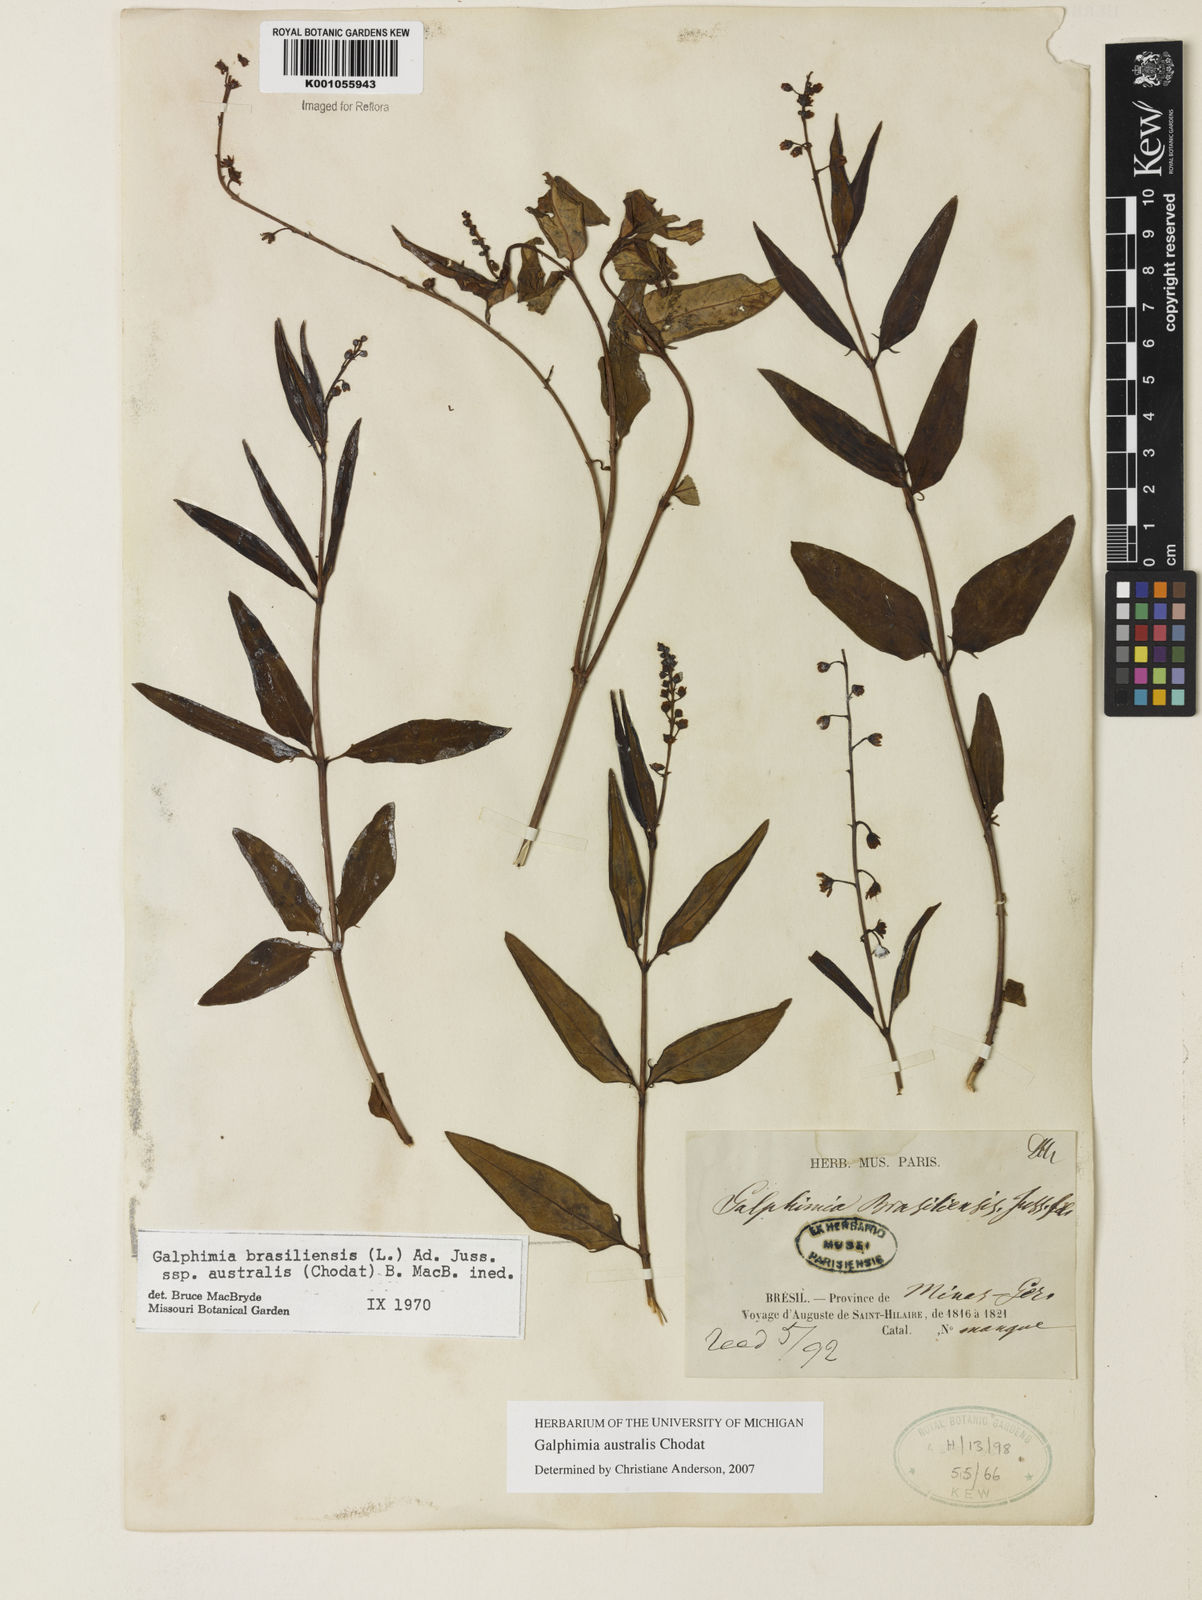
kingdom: Plantae
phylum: Tracheophyta
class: Magnoliopsida
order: Malpighiales
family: Malpighiaceae
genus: Galphimia
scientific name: Galphimia brasiliensis
